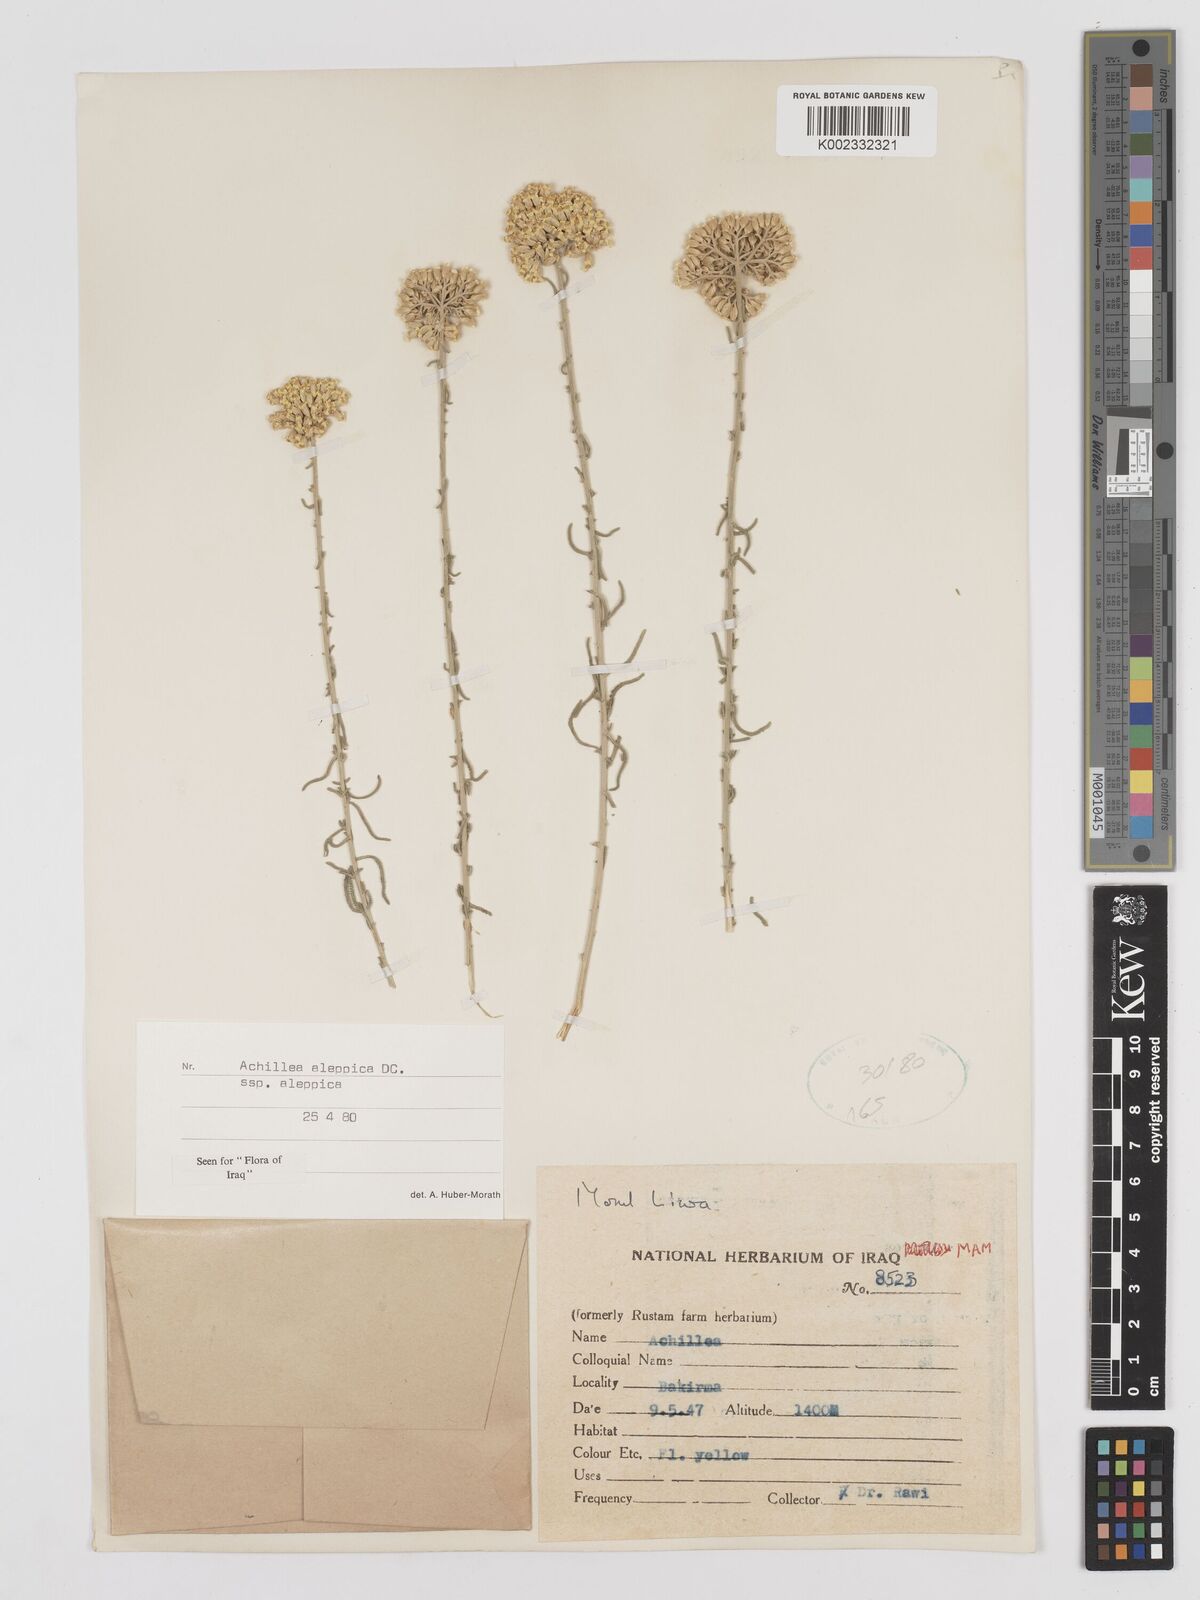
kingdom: Plantae
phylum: Tracheophyta
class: Magnoliopsida
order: Asterales
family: Asteraceae
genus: Achillea
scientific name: Achillea aleppica
